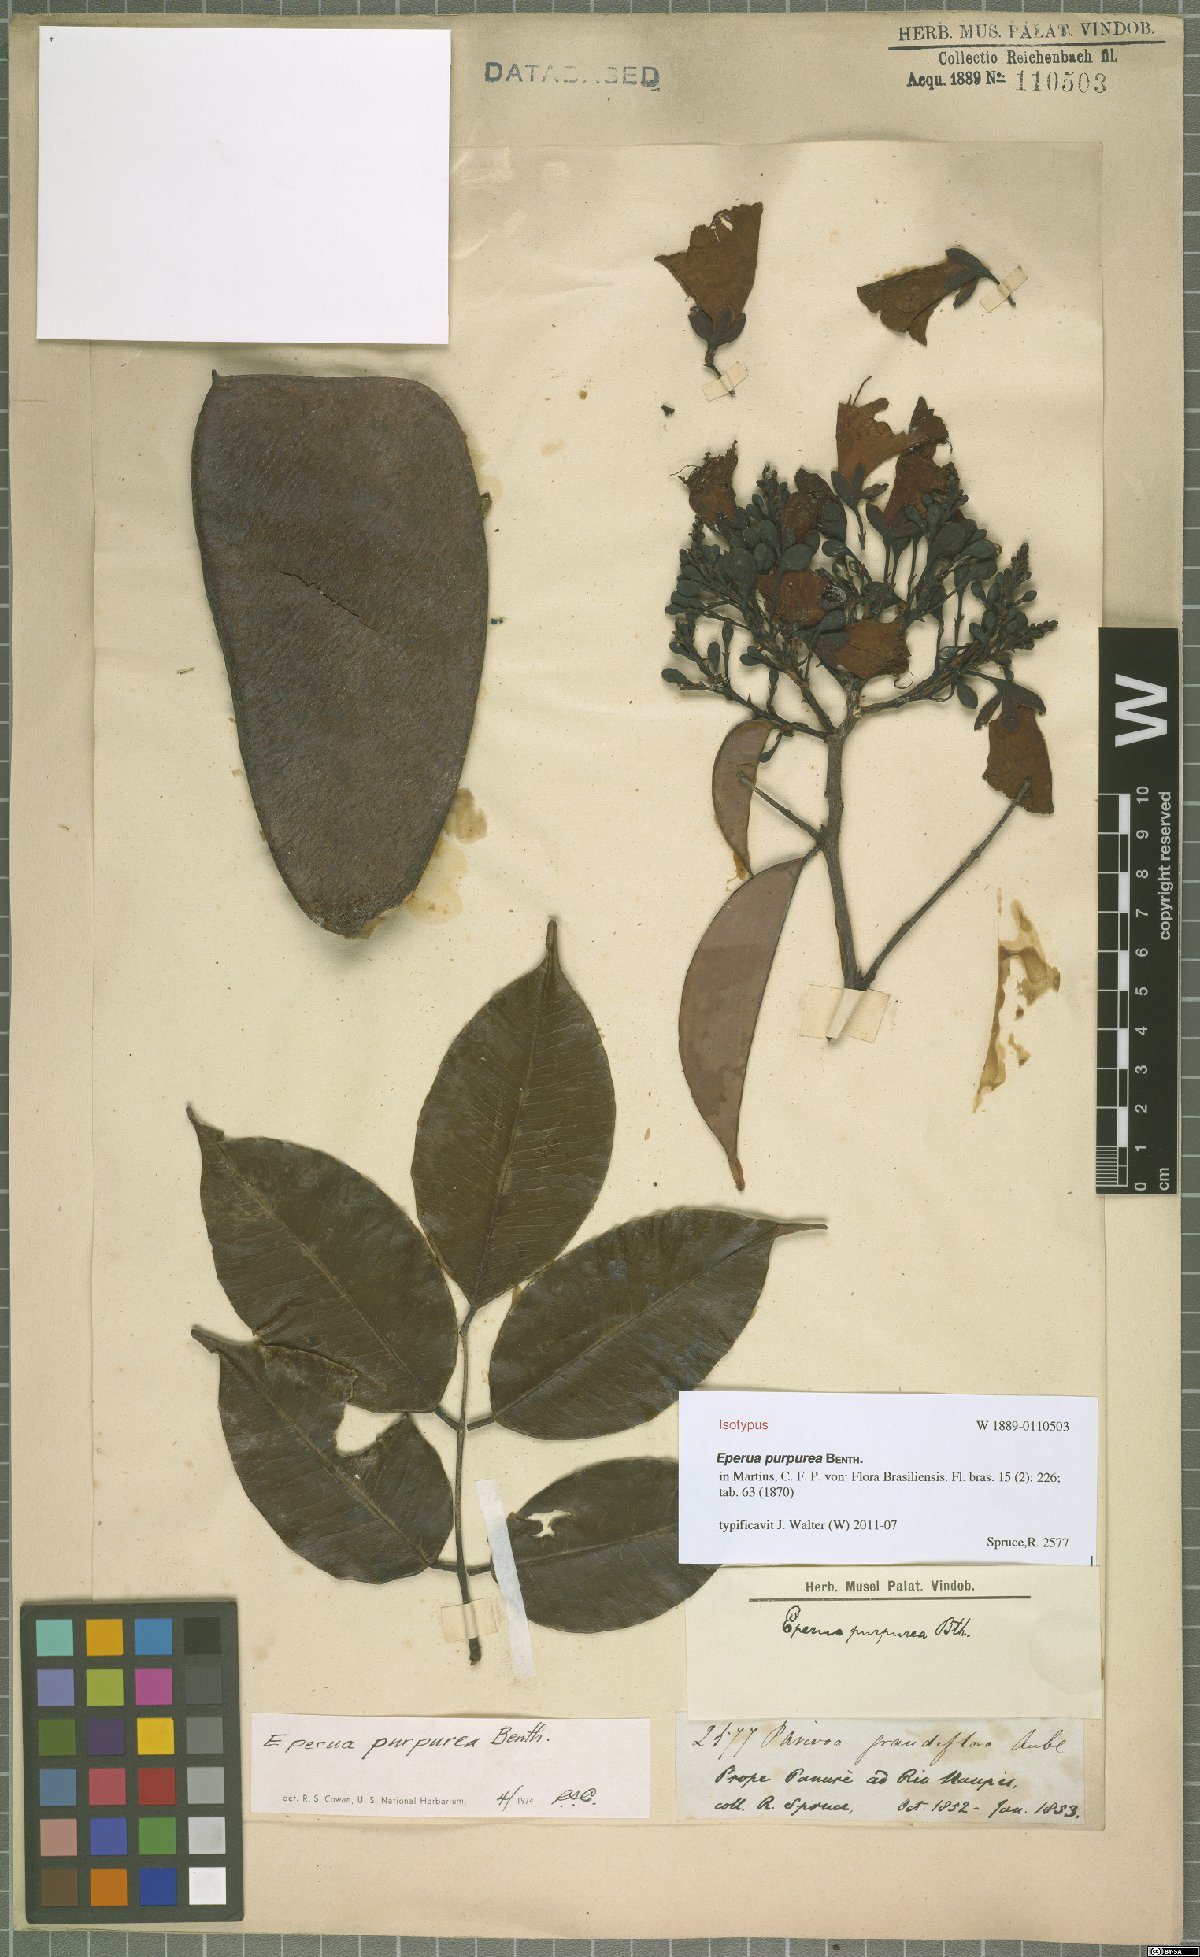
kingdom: Plantae
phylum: Tracheophyta
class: Magnoliopsida
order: Fabales
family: Fabaceae
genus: Eperua
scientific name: Eperua purpurea
